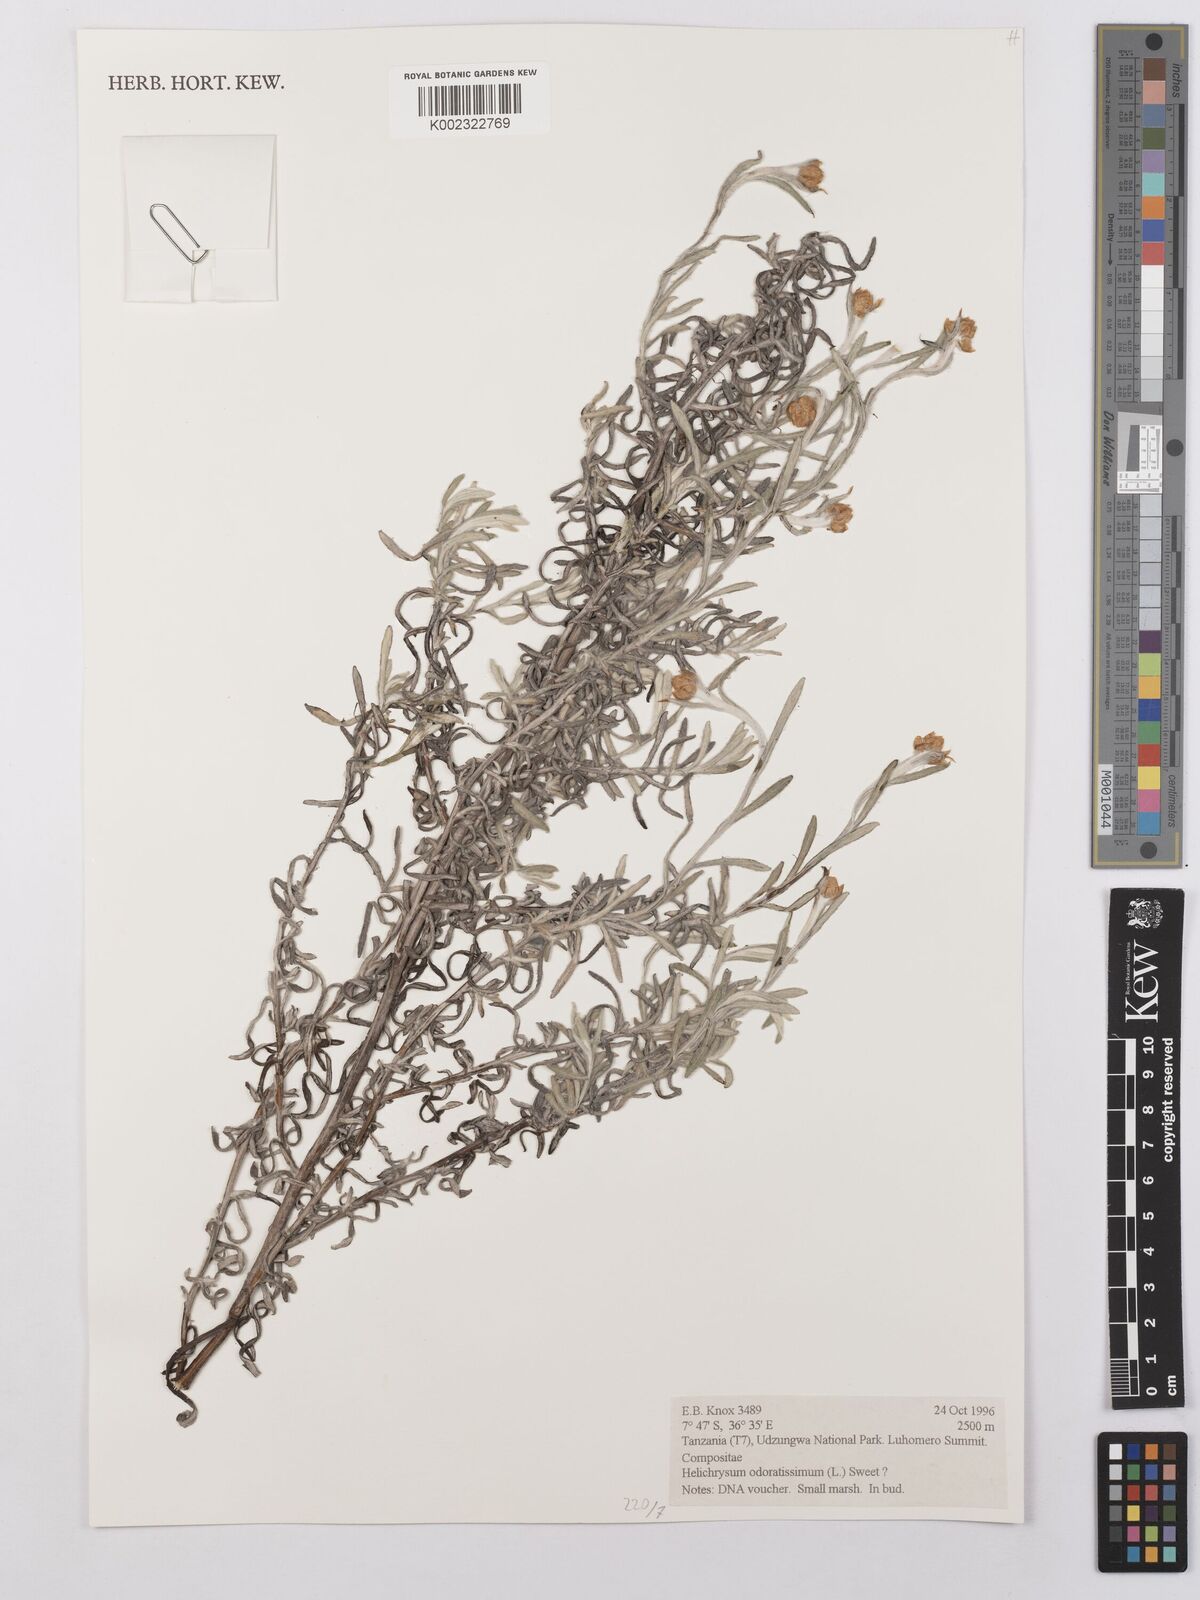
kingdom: Plantae
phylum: Tracheophyta
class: Magnoliopsida
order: Asterales
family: Asteraceae
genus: Helichrysum
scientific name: Helichrysum odoratissimum
